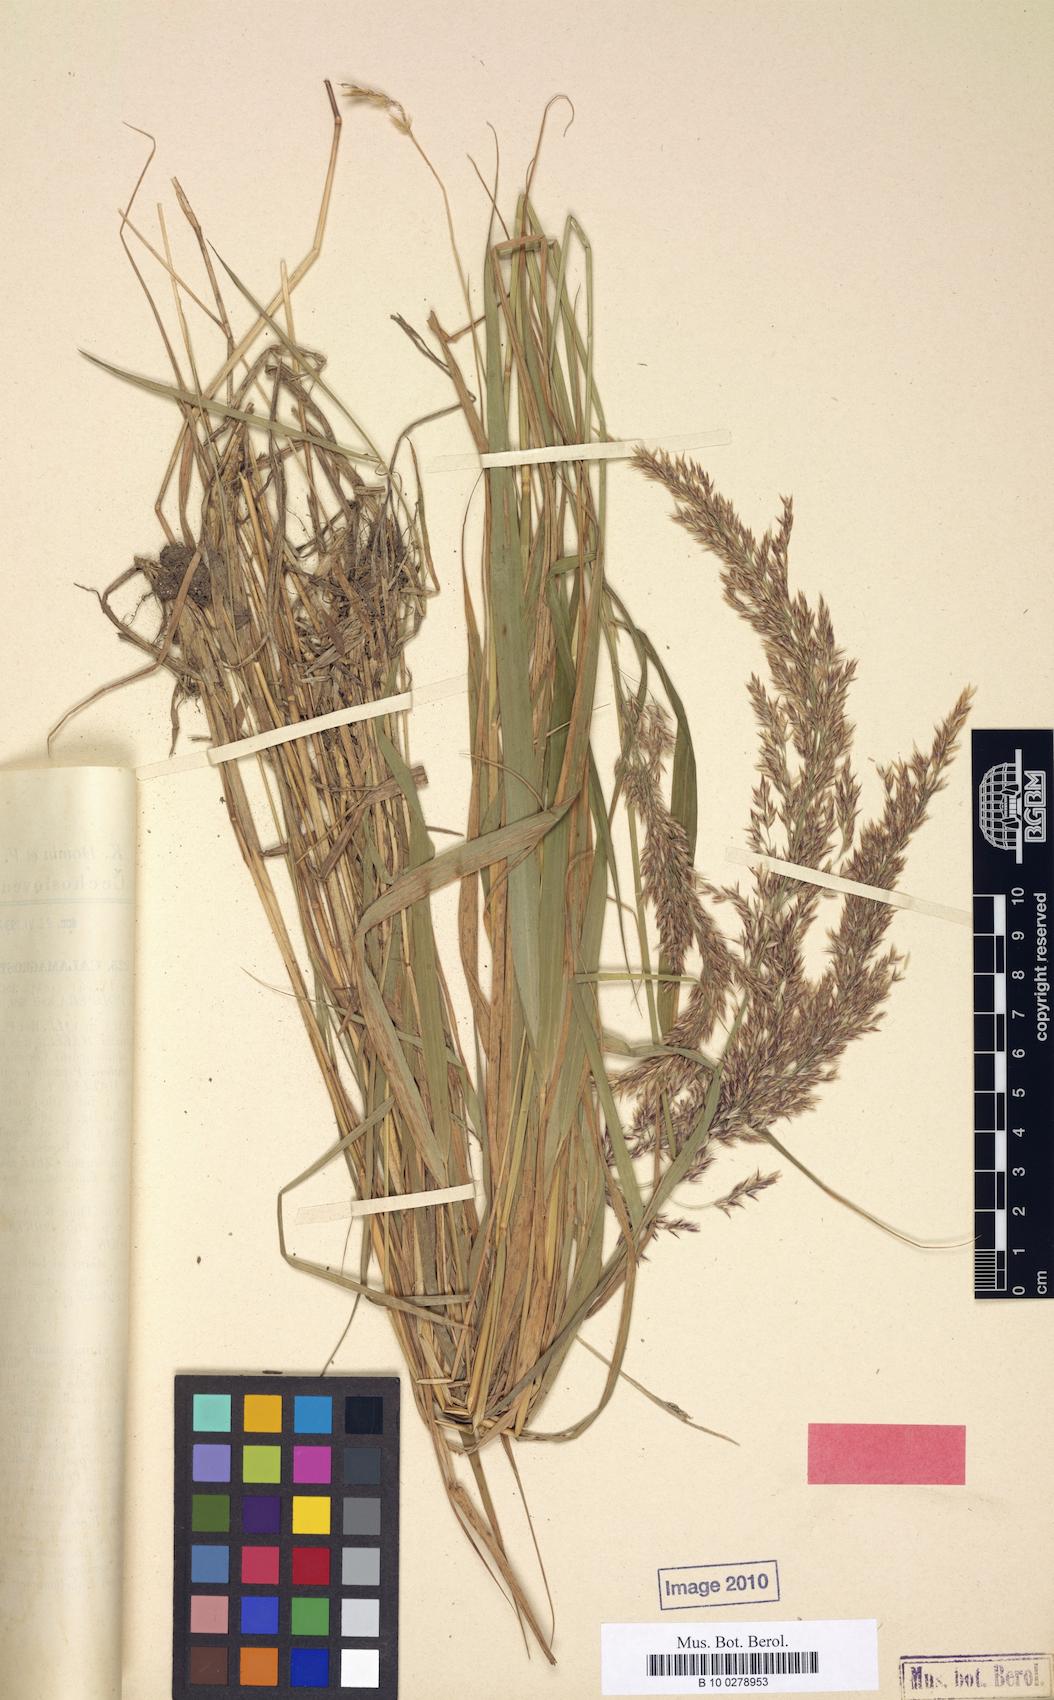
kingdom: Plantae
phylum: Tracheophyta
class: Liliopsida
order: Poales
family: Poaceae
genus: Calamagrostis
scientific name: Calamagrostis villosa
